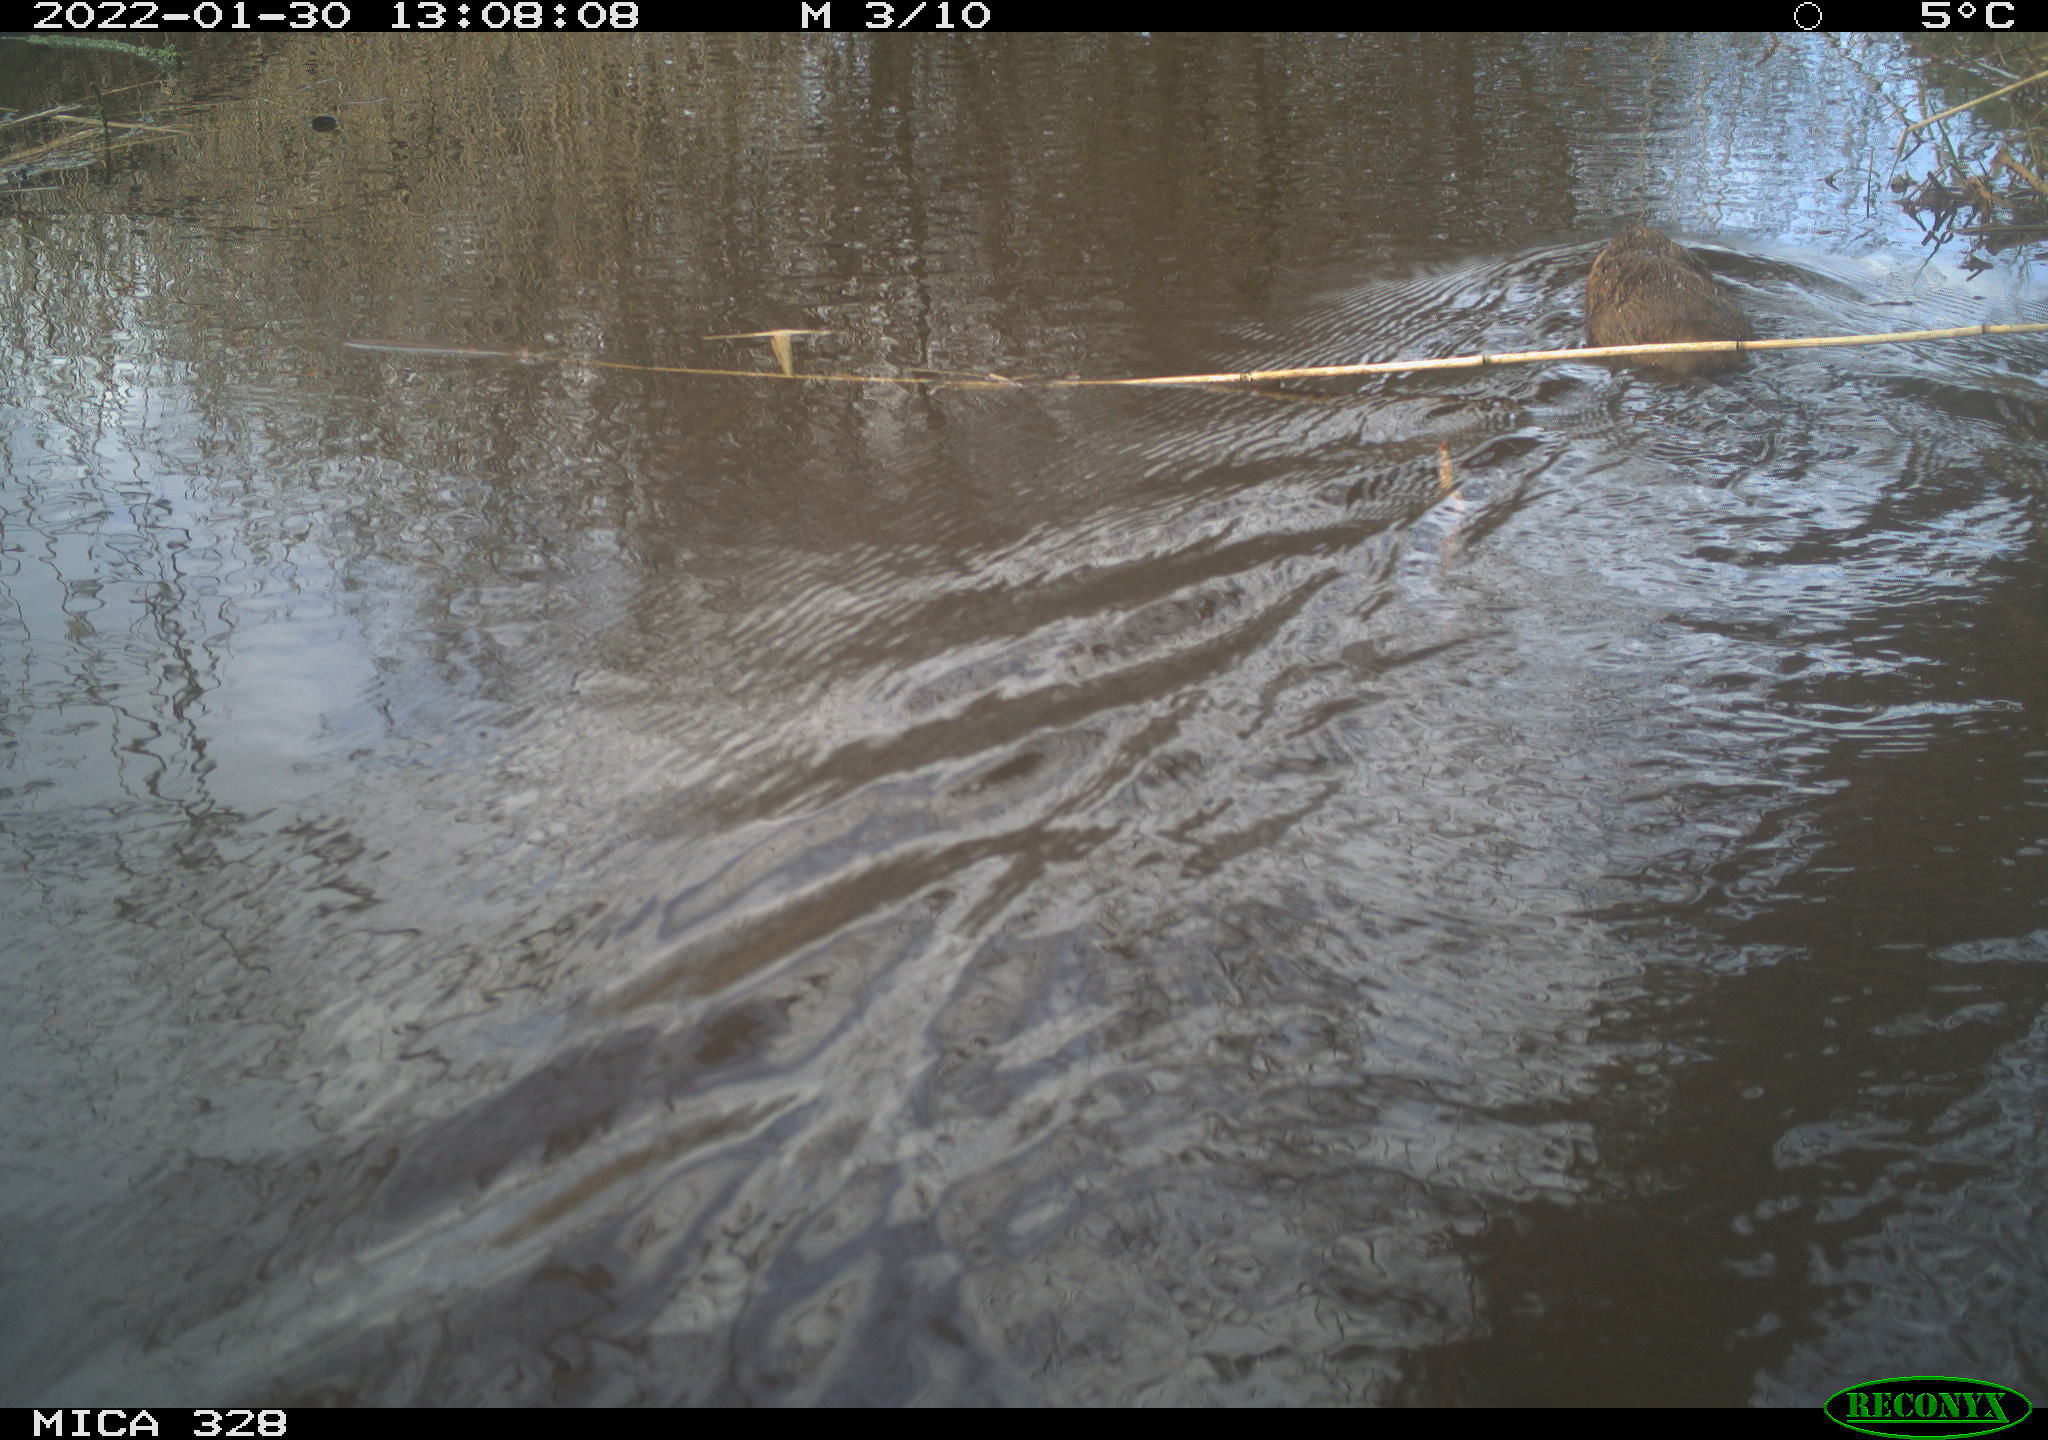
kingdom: Animalia
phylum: Chordata
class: Mammalia
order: Rodentia
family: Cricetidae
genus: Ondatra
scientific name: Ondatra zibethicus
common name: Muskrat
